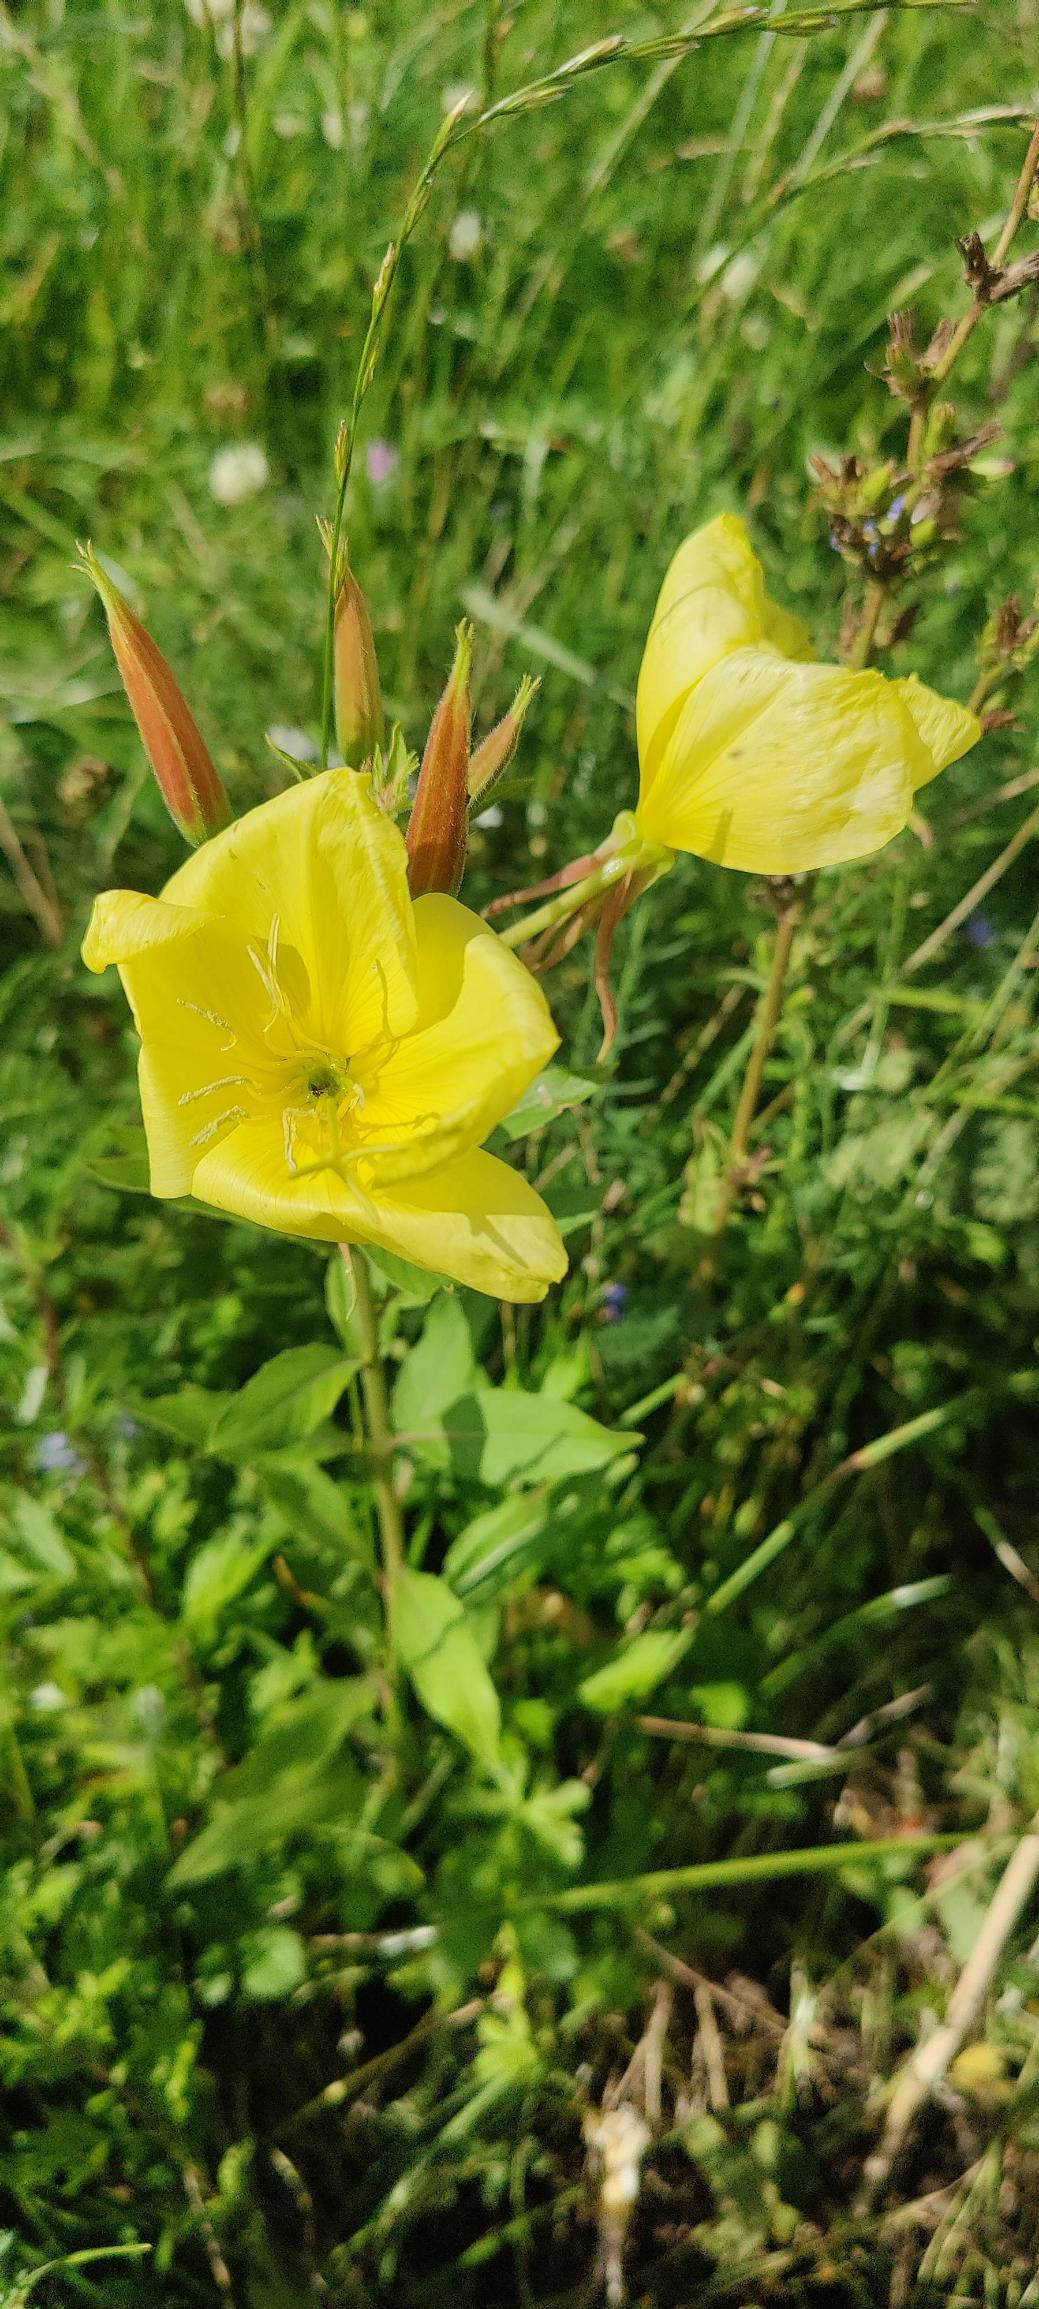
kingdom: Plantae
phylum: Tracheophyta
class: Magnoliopsida
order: Myrtales
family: Onagraceae
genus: Oenothera
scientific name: Oenothera glazioviana
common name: Kæmpe-natlys
